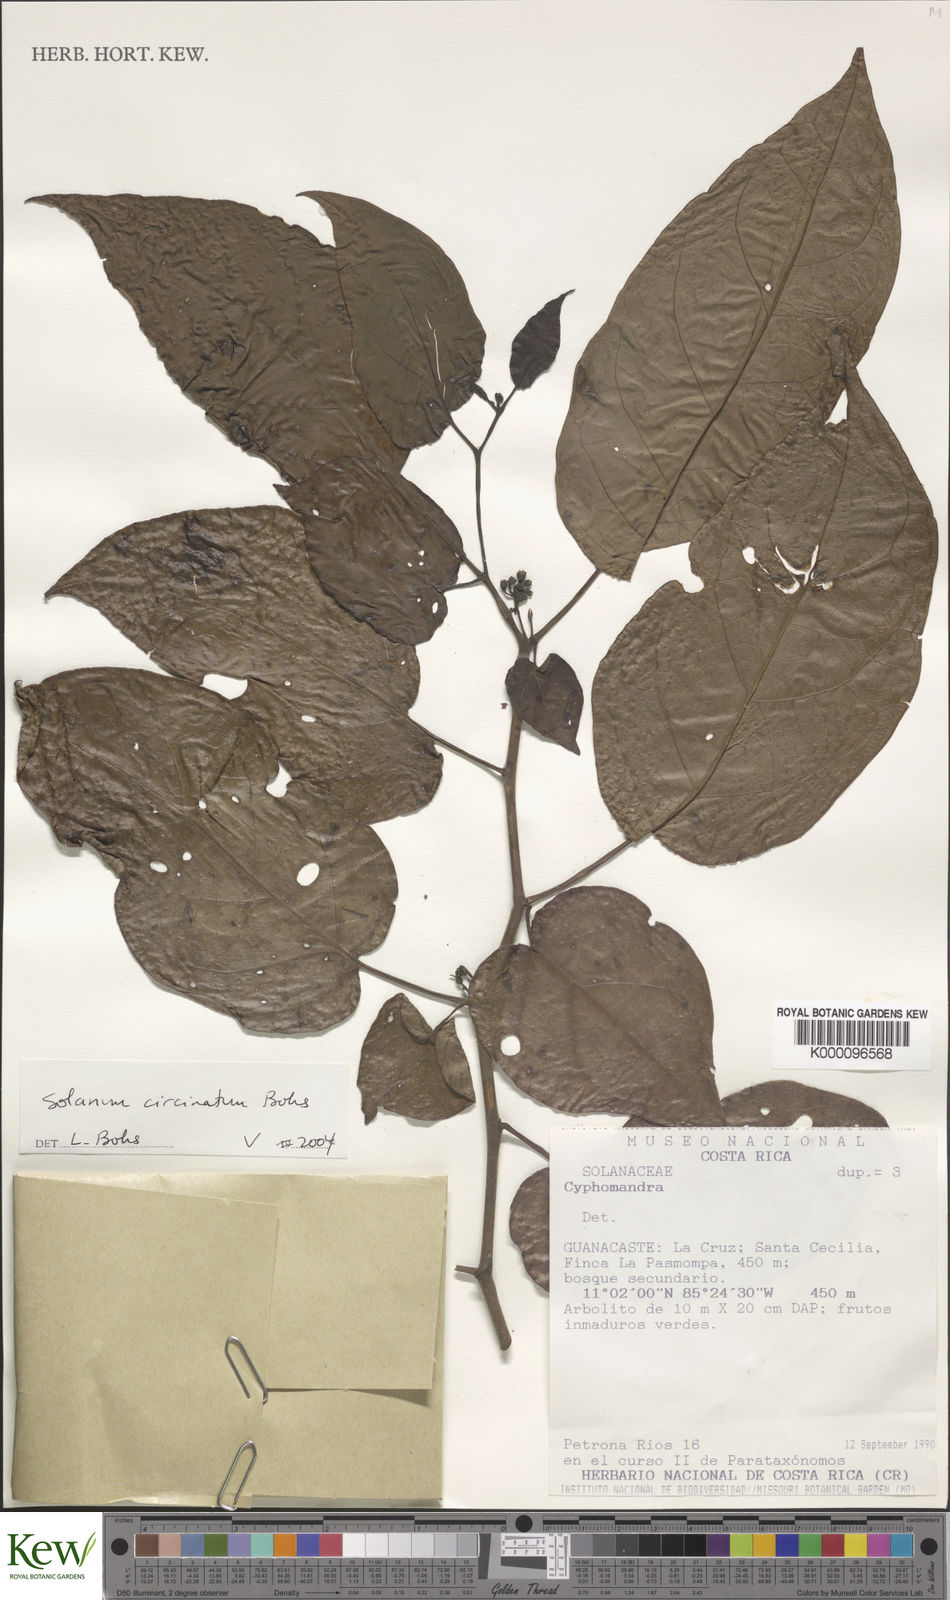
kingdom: Plantae
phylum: Tracheophyta
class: Magnoliopsida
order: Solanales
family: Solanaceae
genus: Solanum
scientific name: Solanum splendens
